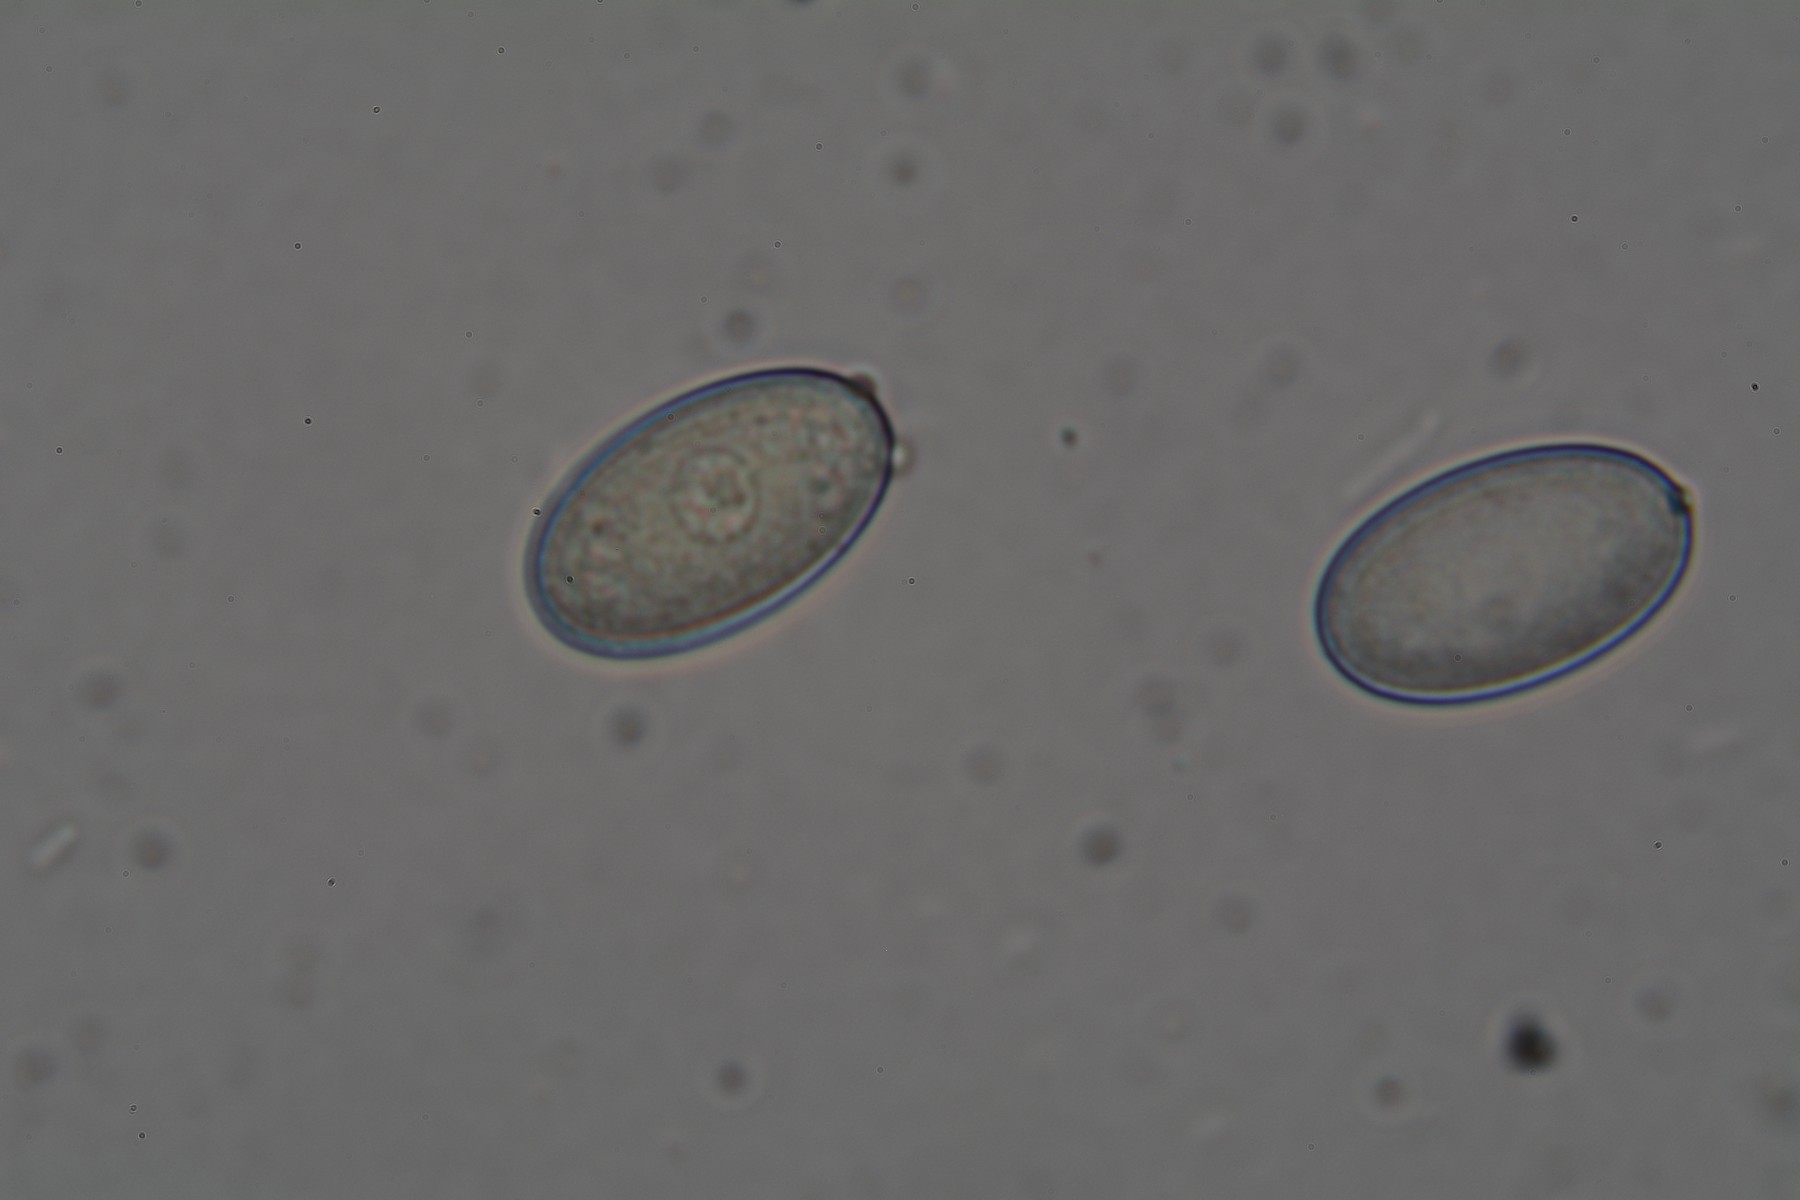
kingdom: Fungi
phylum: Ascomycota
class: Pezizomycetes
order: Pezizales
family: Pezizaceae
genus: Peziza
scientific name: Peziza
